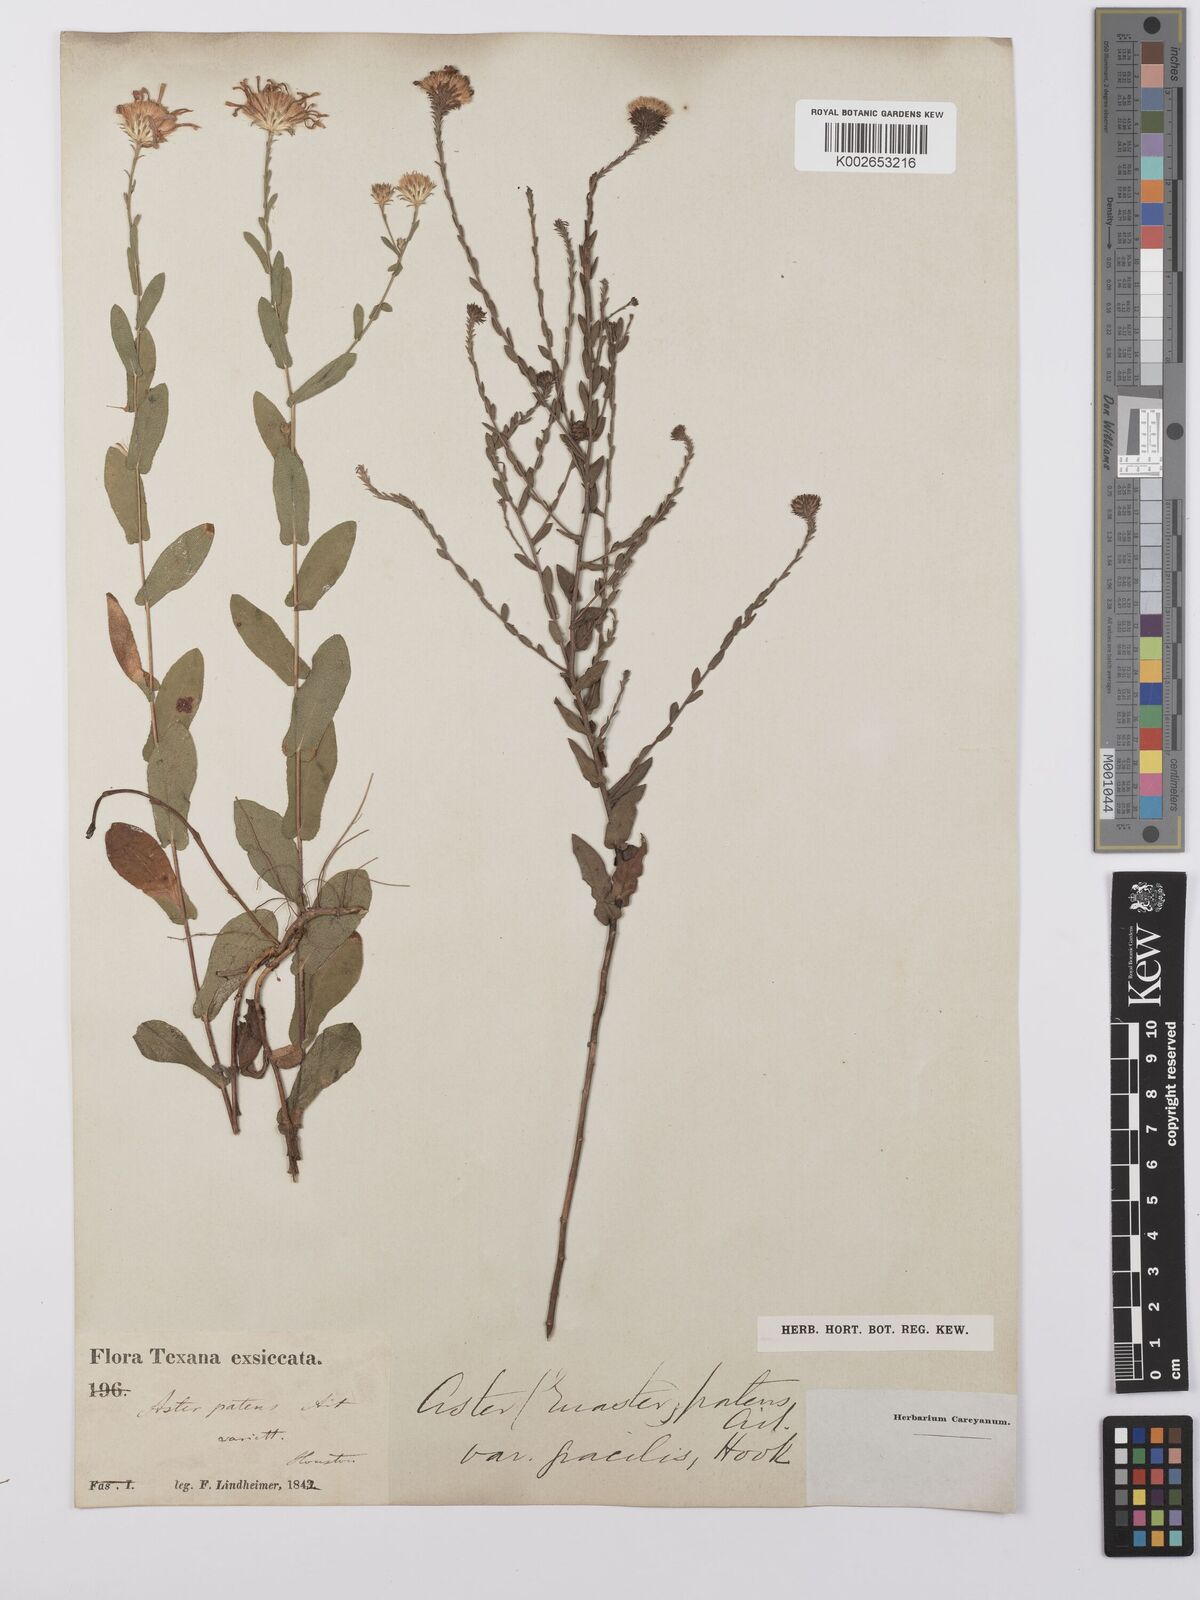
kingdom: Plantae
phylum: Tracheophyta
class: Magnoliopsida
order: Asterales
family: Asteraceae
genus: Symphyotrichum
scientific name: Symphyotrichum patens
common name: Late purple aster
